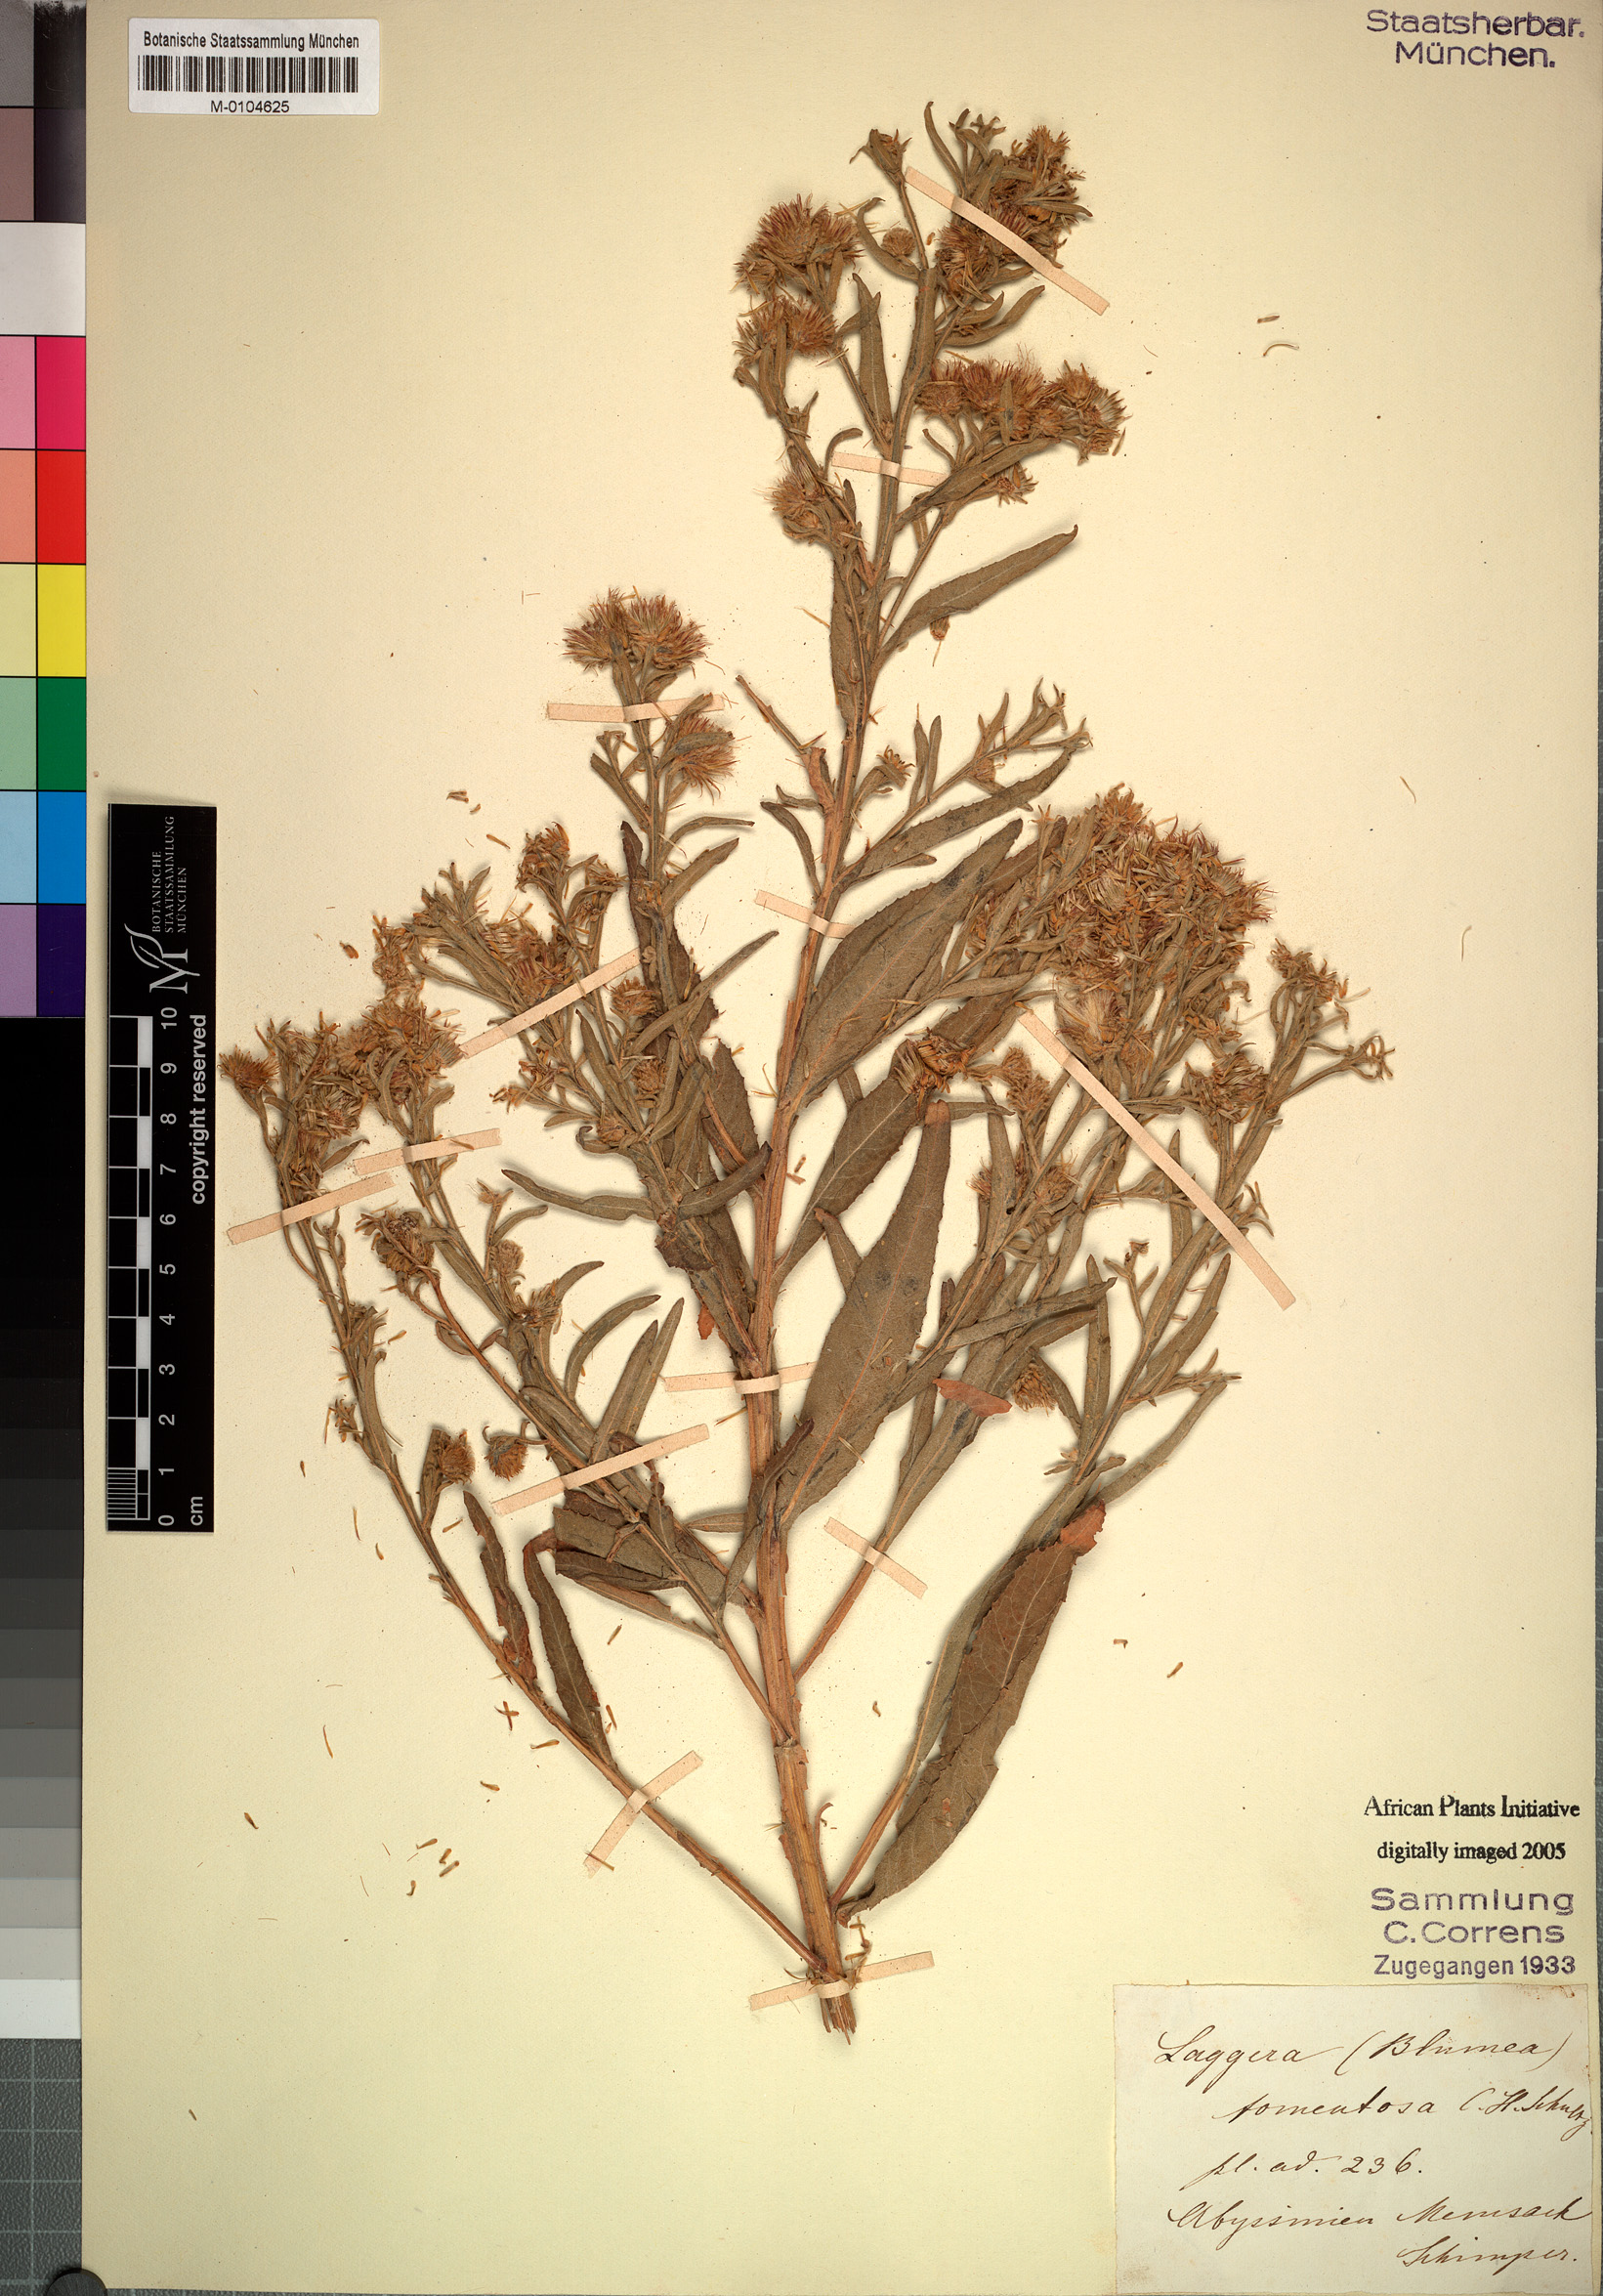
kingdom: Plantae
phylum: Tracheophyta
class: Magnoliopsida
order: Asterales
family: Asteraceae
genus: Laggera
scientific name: Laggera tomentosa
